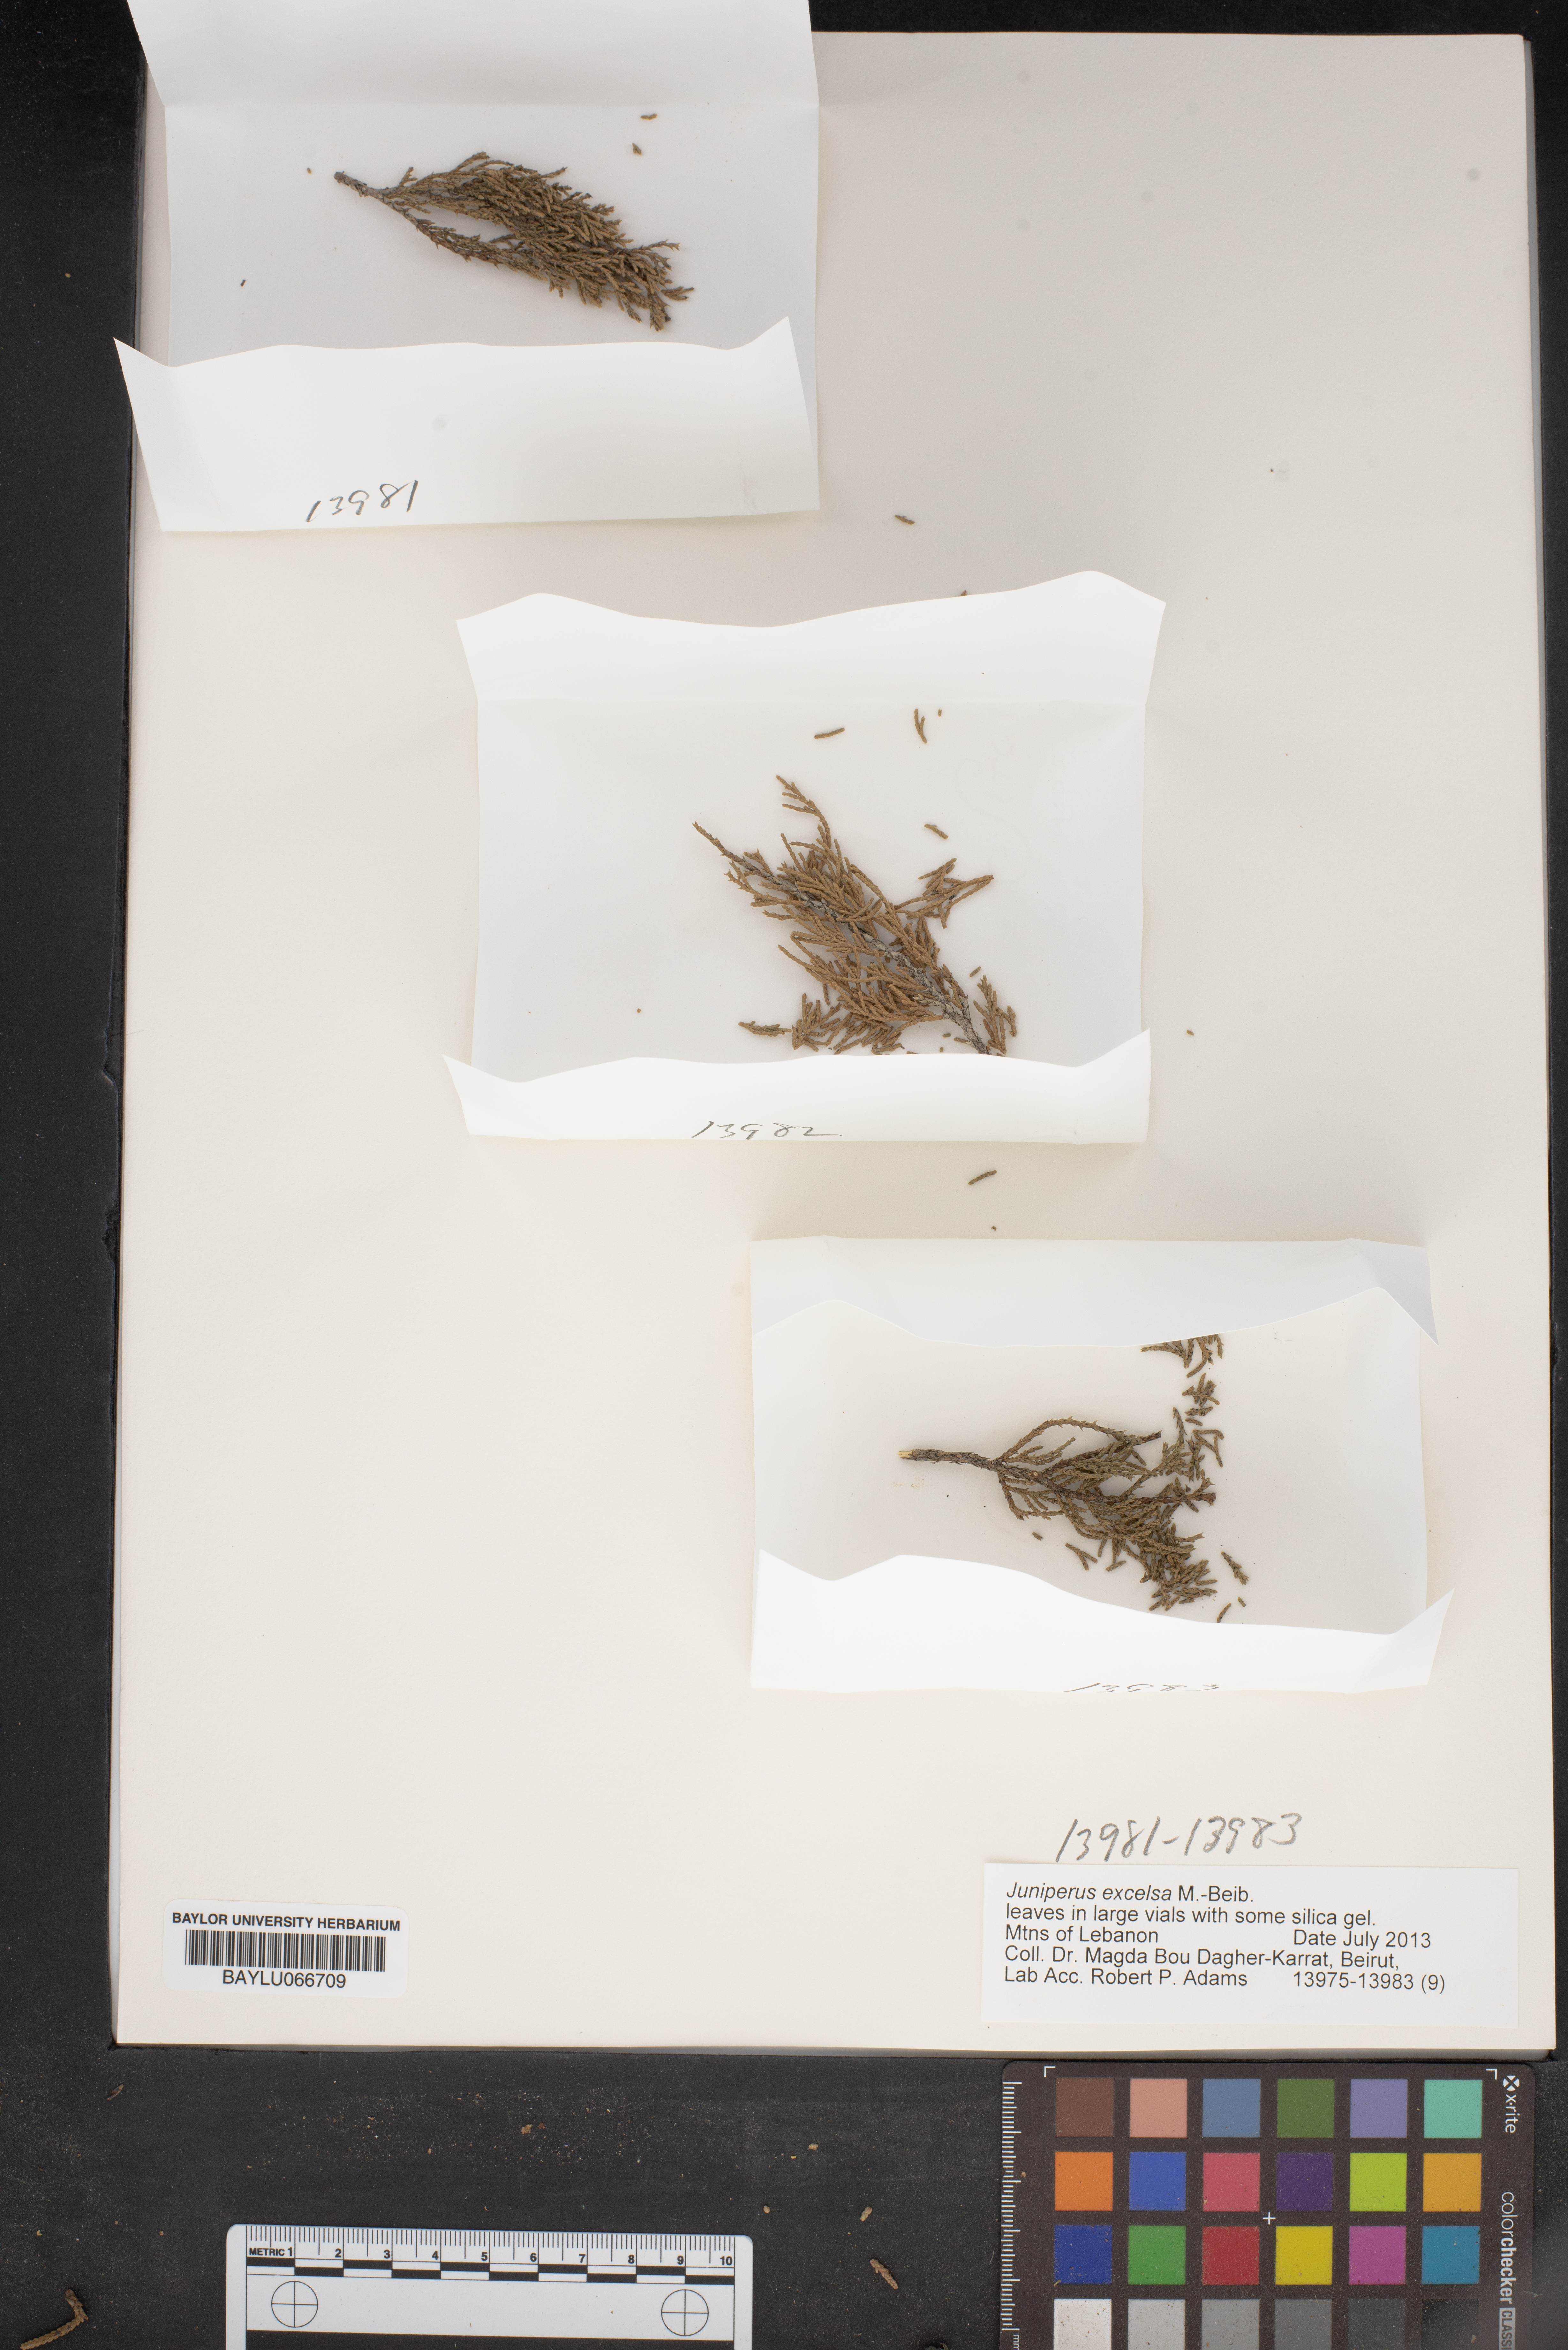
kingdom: Plantae
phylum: Tracheophyta
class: Pinopsida
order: Pinales
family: Cupressaceae
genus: Juniperus
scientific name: Juniperus excelsa
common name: Crimean juniper
